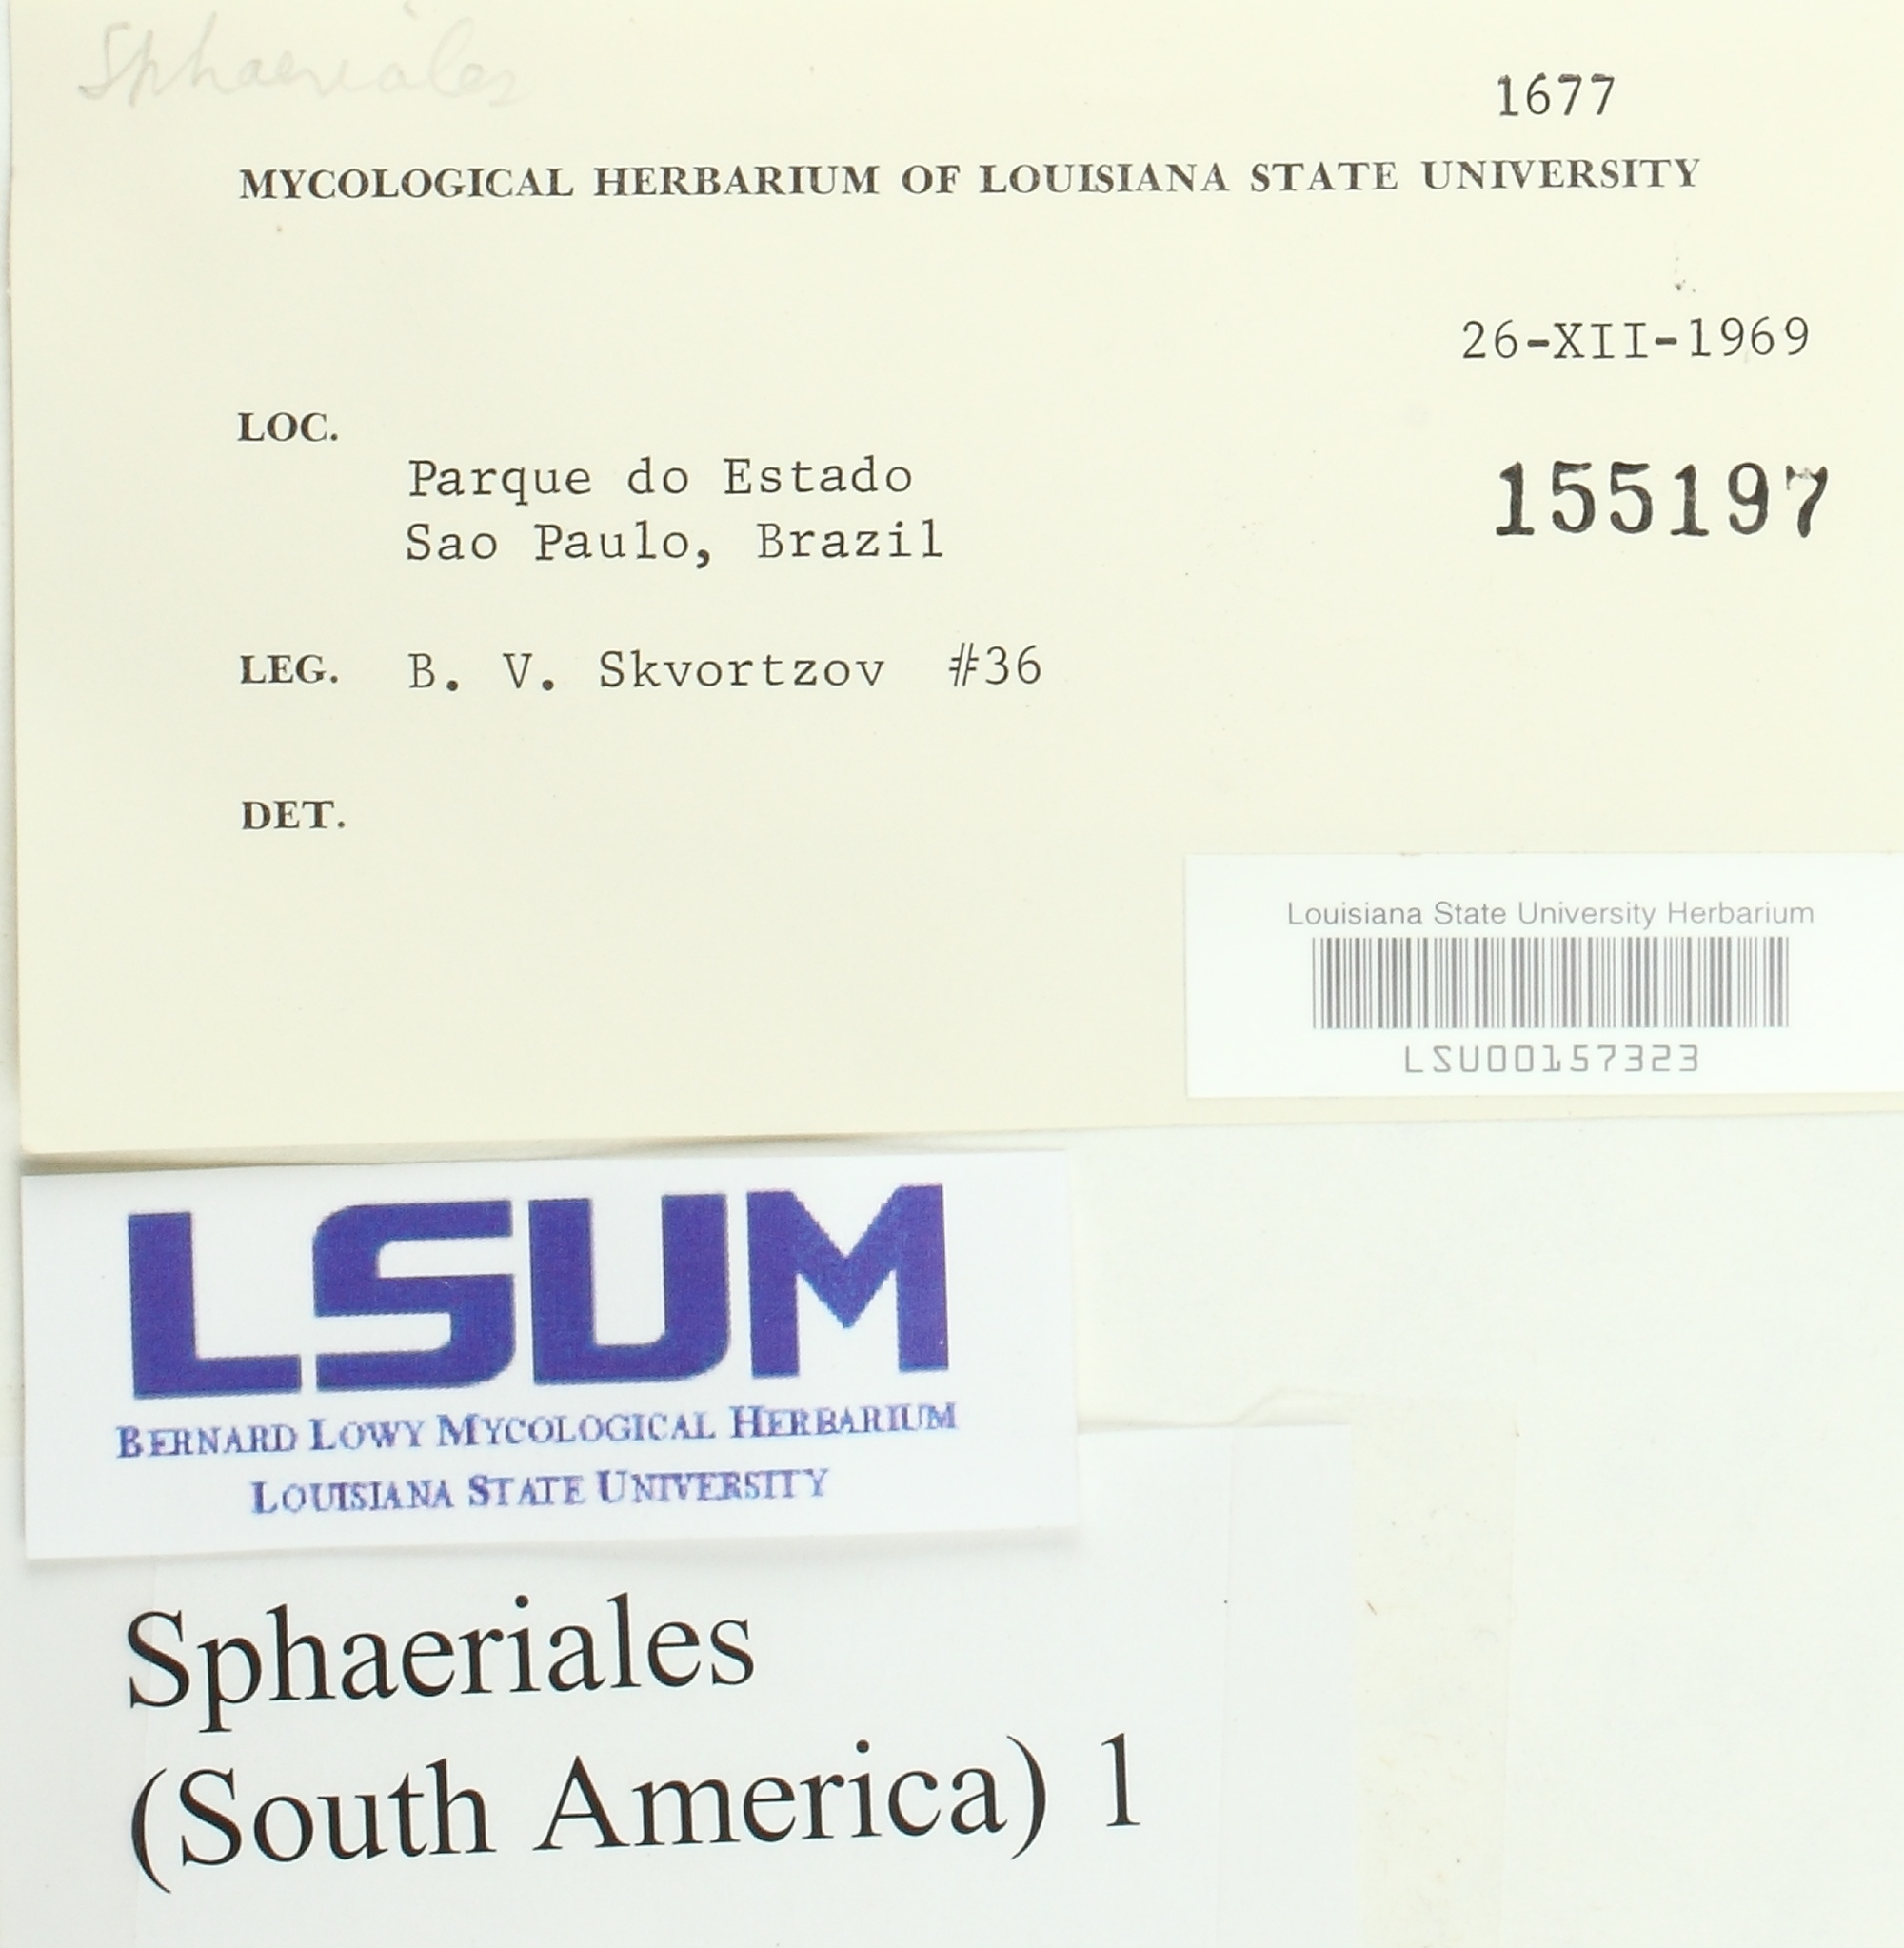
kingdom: Fungi
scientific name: Fungi
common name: Fungi
